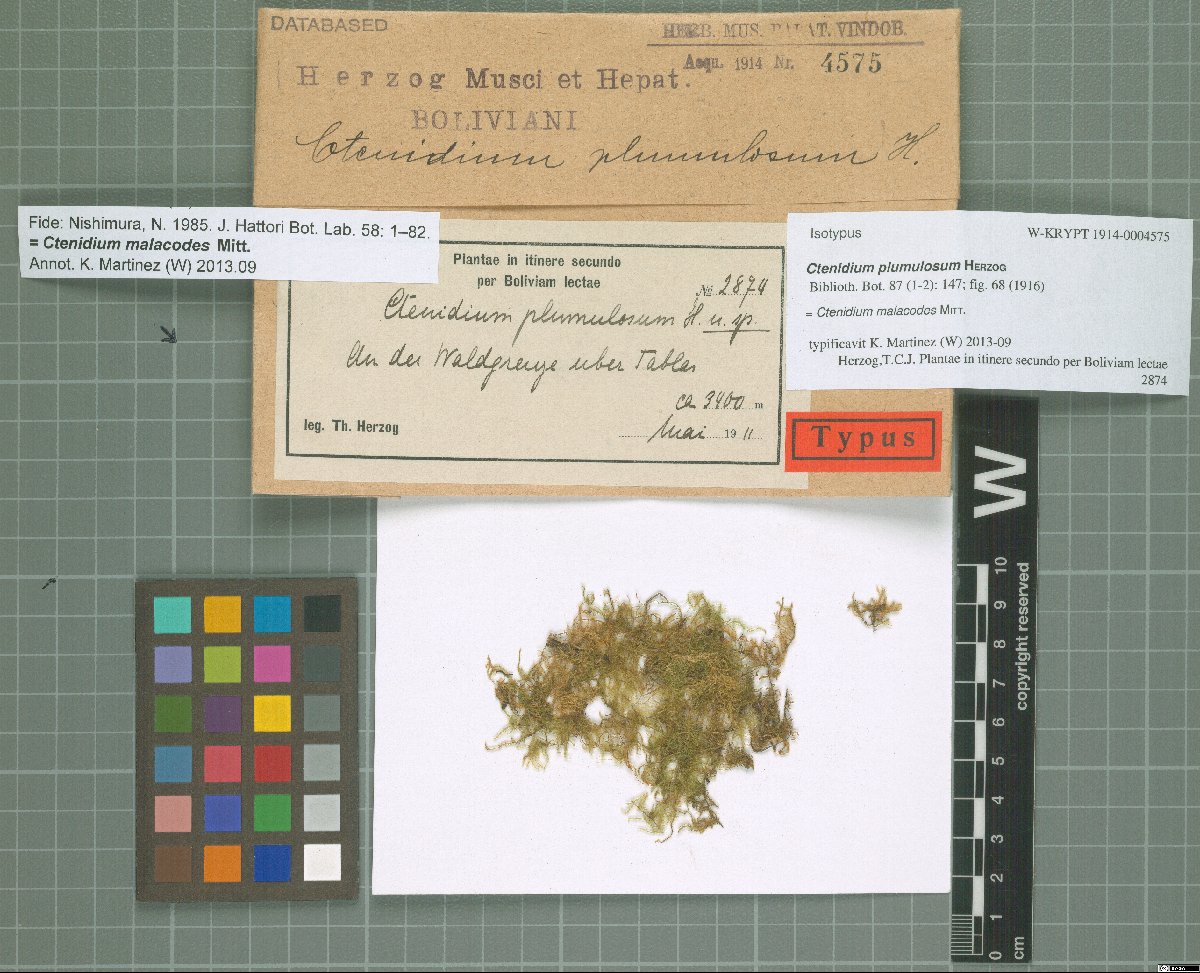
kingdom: Plantae
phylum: Bryophyta
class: Bryopsida
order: Hypnales
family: Myuriaceae
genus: Ctenidium
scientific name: Ctenidium malacodes
